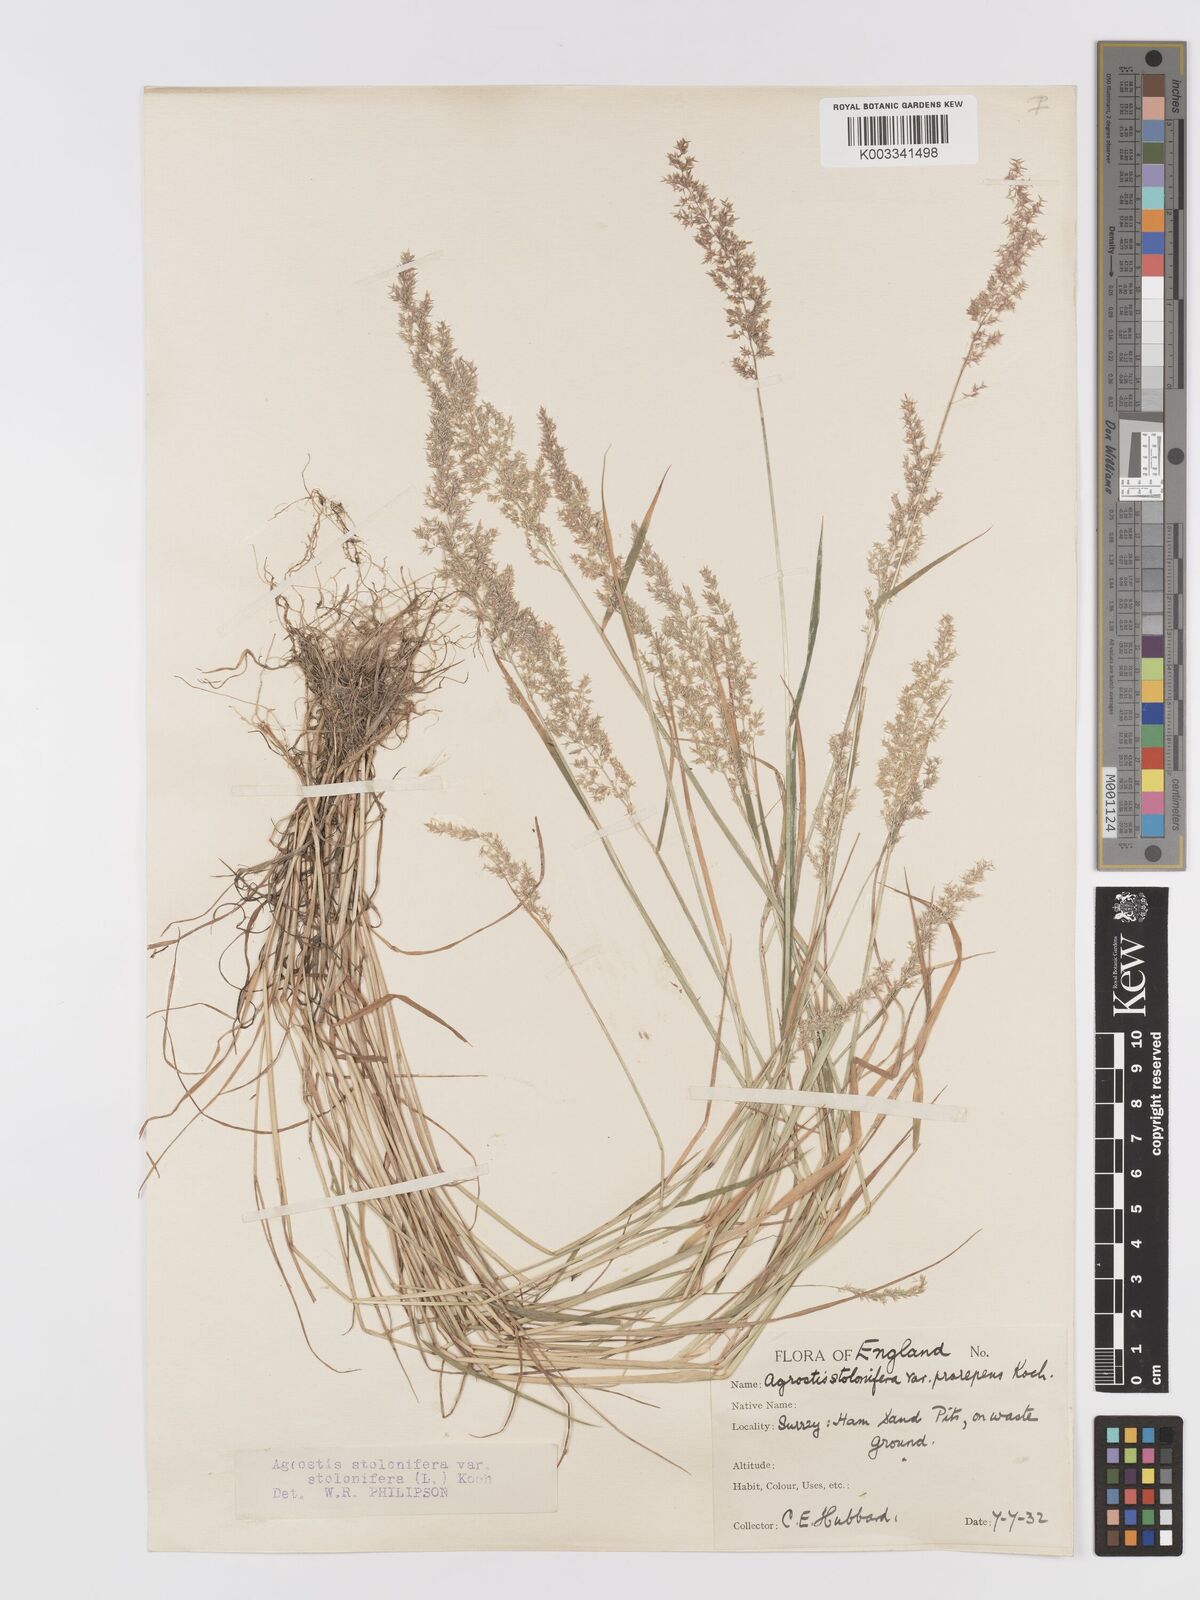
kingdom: Plantae
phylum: Tracheophyta
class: Liliopsida
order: Poales
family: Poaceae
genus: Agrostis
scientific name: Agrostis stolonifera
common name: Creeping bentgrass
